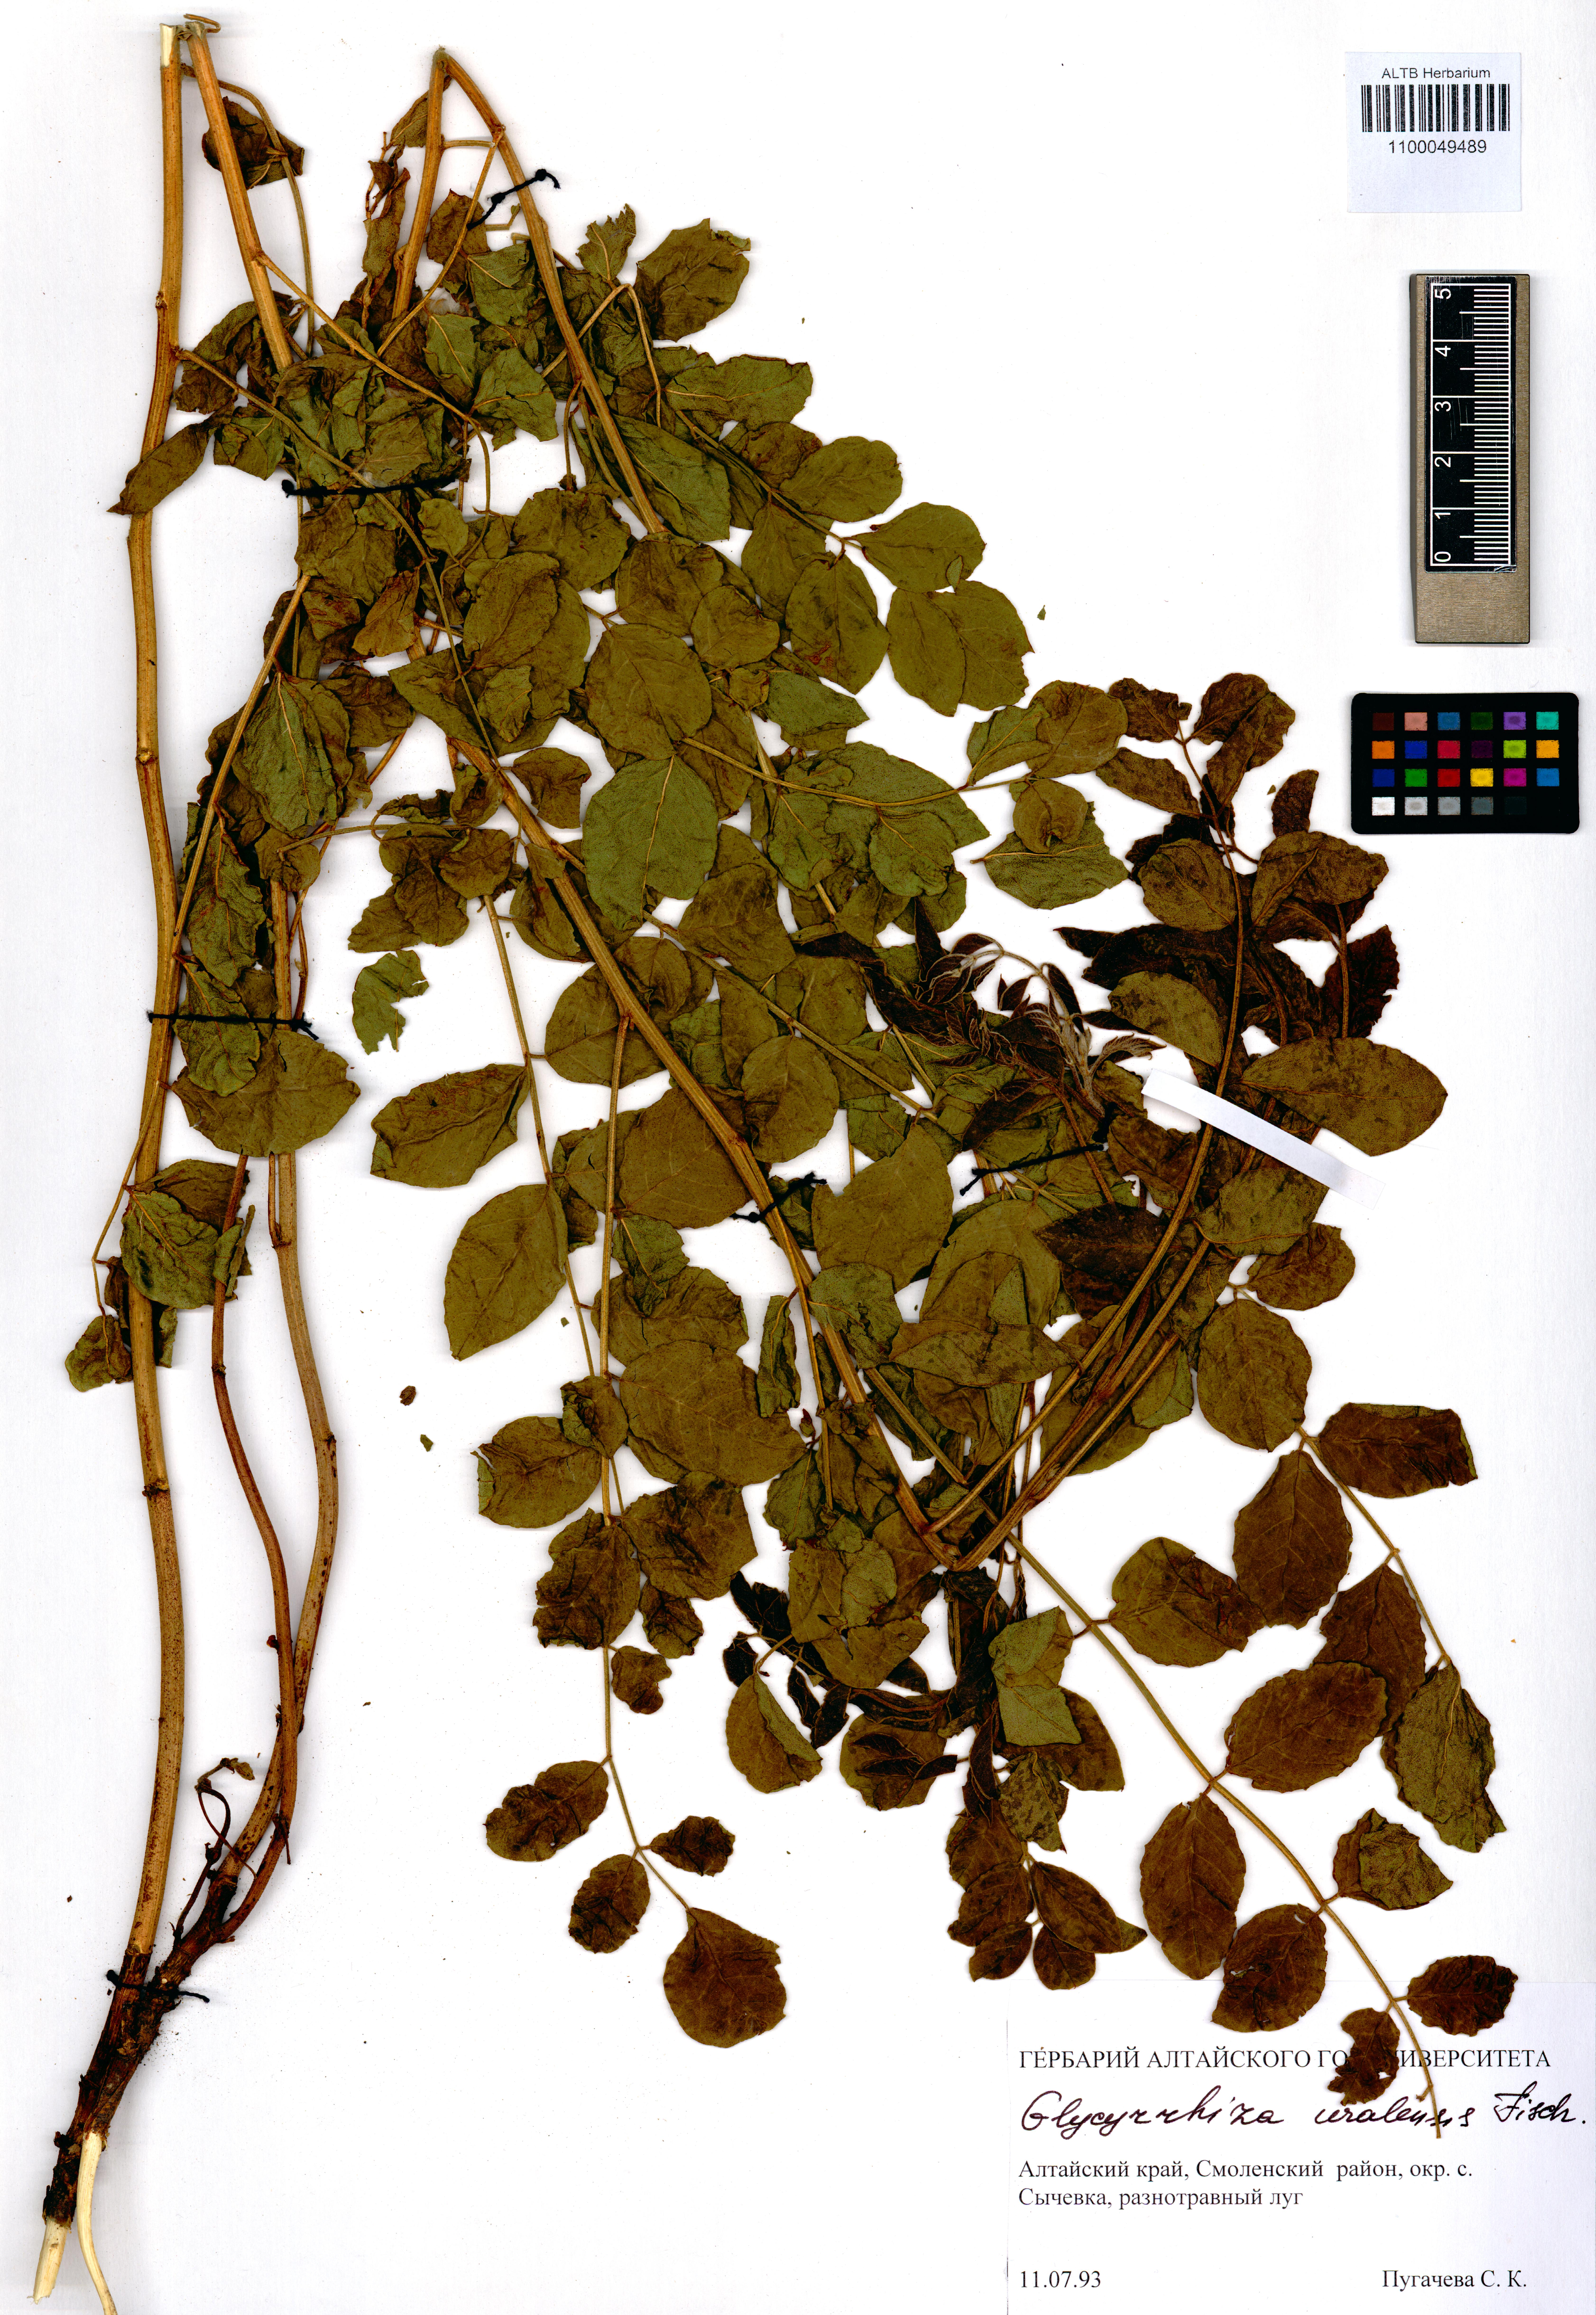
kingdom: Plantae
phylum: Tracheophyta
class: Magnoliopsida
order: Fabales
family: Fabaceae
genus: Glycyrrhiza
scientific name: Glycyrrhiza uralensis
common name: Chinese licorice
